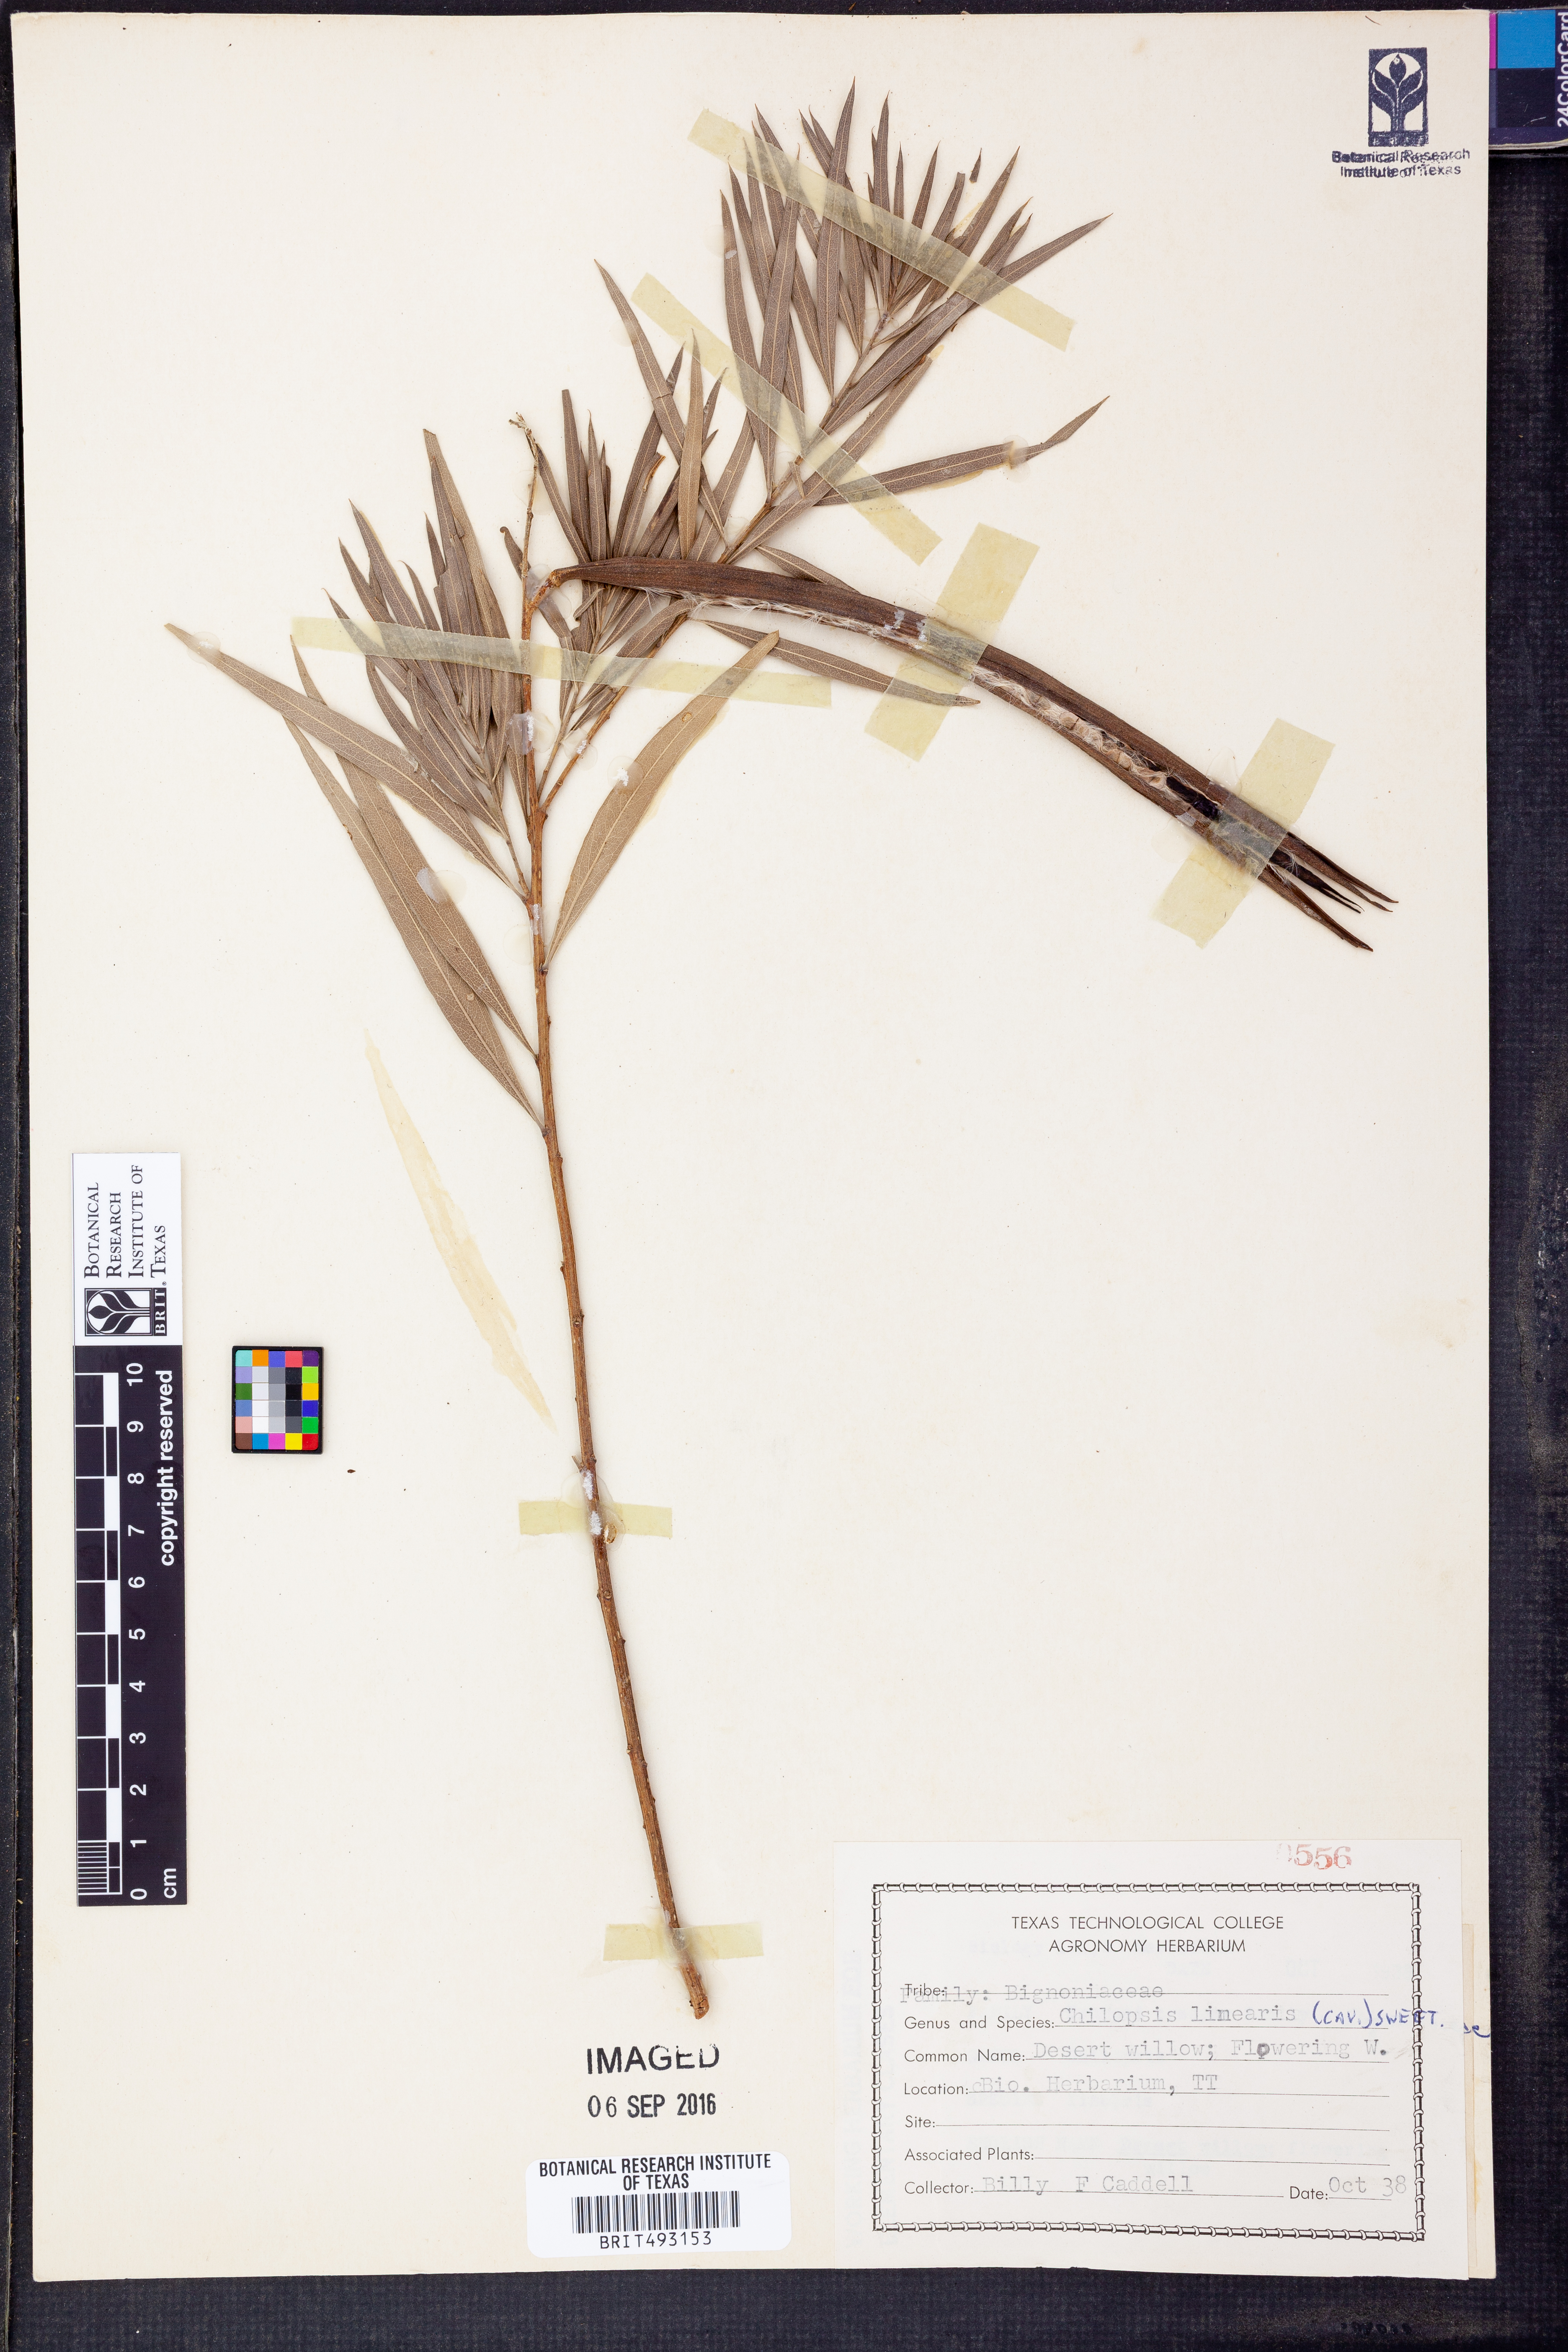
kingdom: Plantae
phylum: Tracheophyta
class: Magnoliopsida
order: Lamiales
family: Bignoniaceae
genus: Chilopsis
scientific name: Chilopsis linearis
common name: Desert-willow
